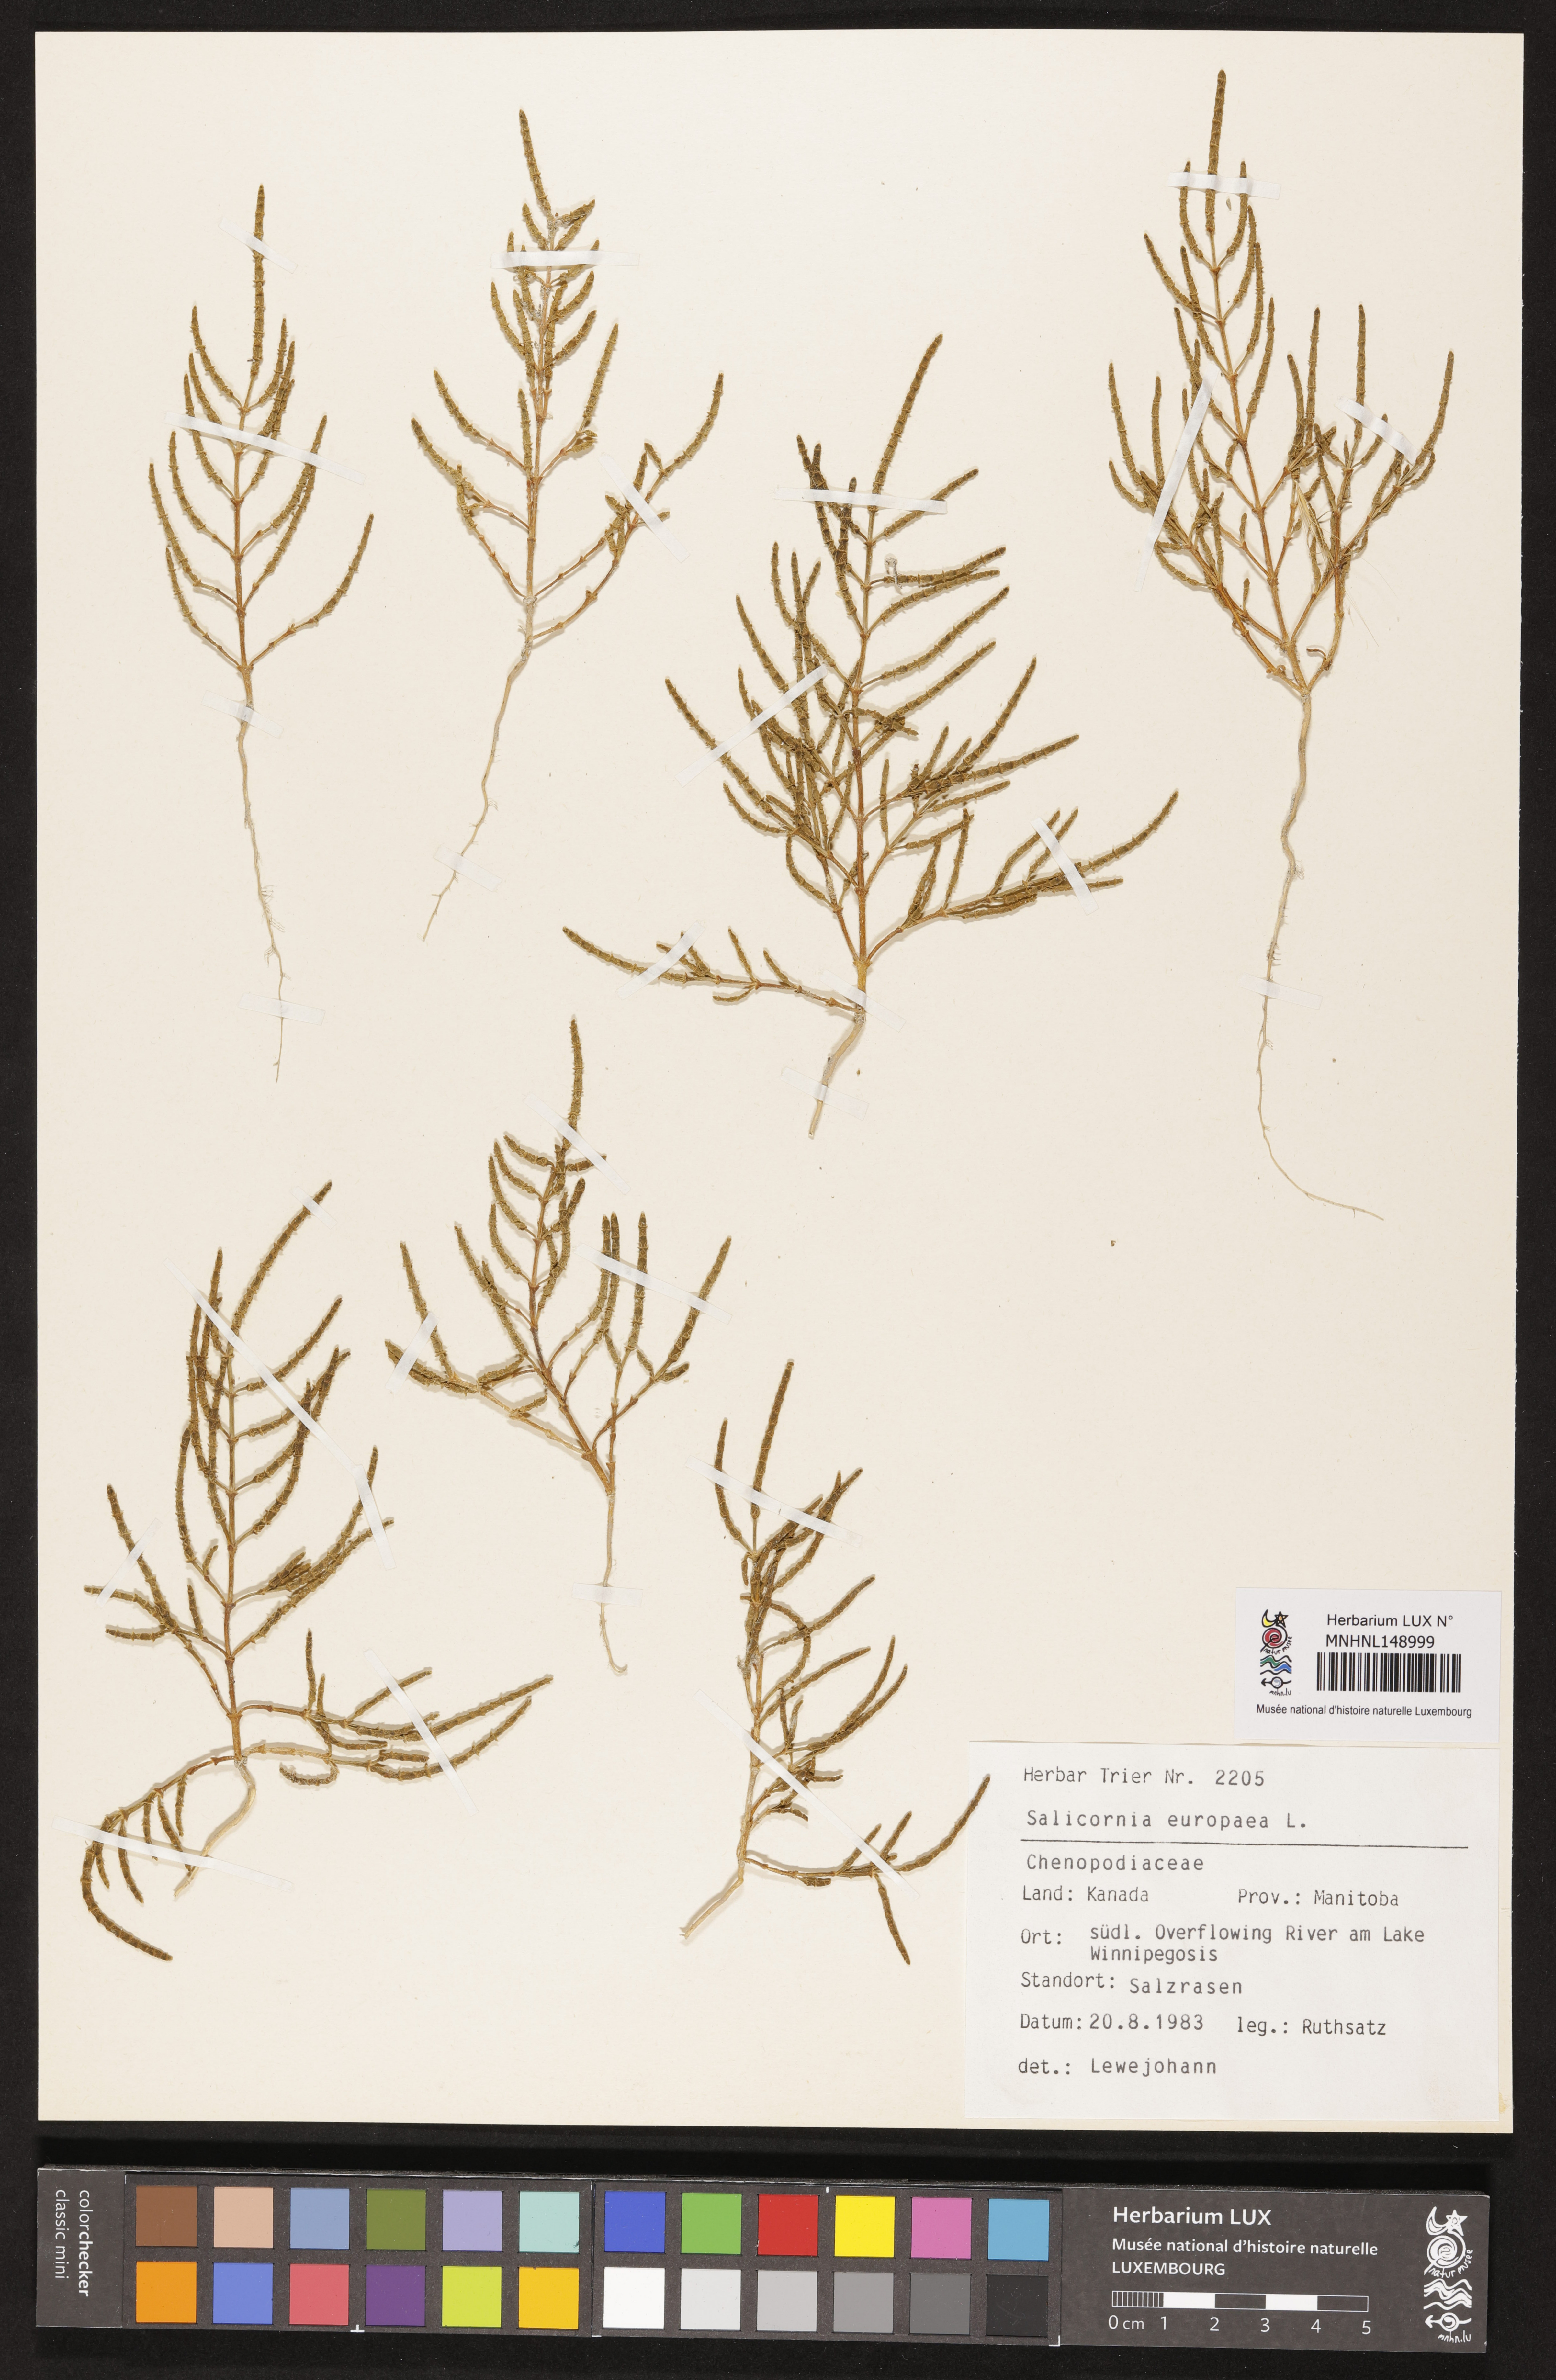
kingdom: Plantae
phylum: Tracheophyta
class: Magnoliopsida
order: Caryophyllales
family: Amaranthaceae
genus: Salicornia
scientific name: Salicornia europaea
